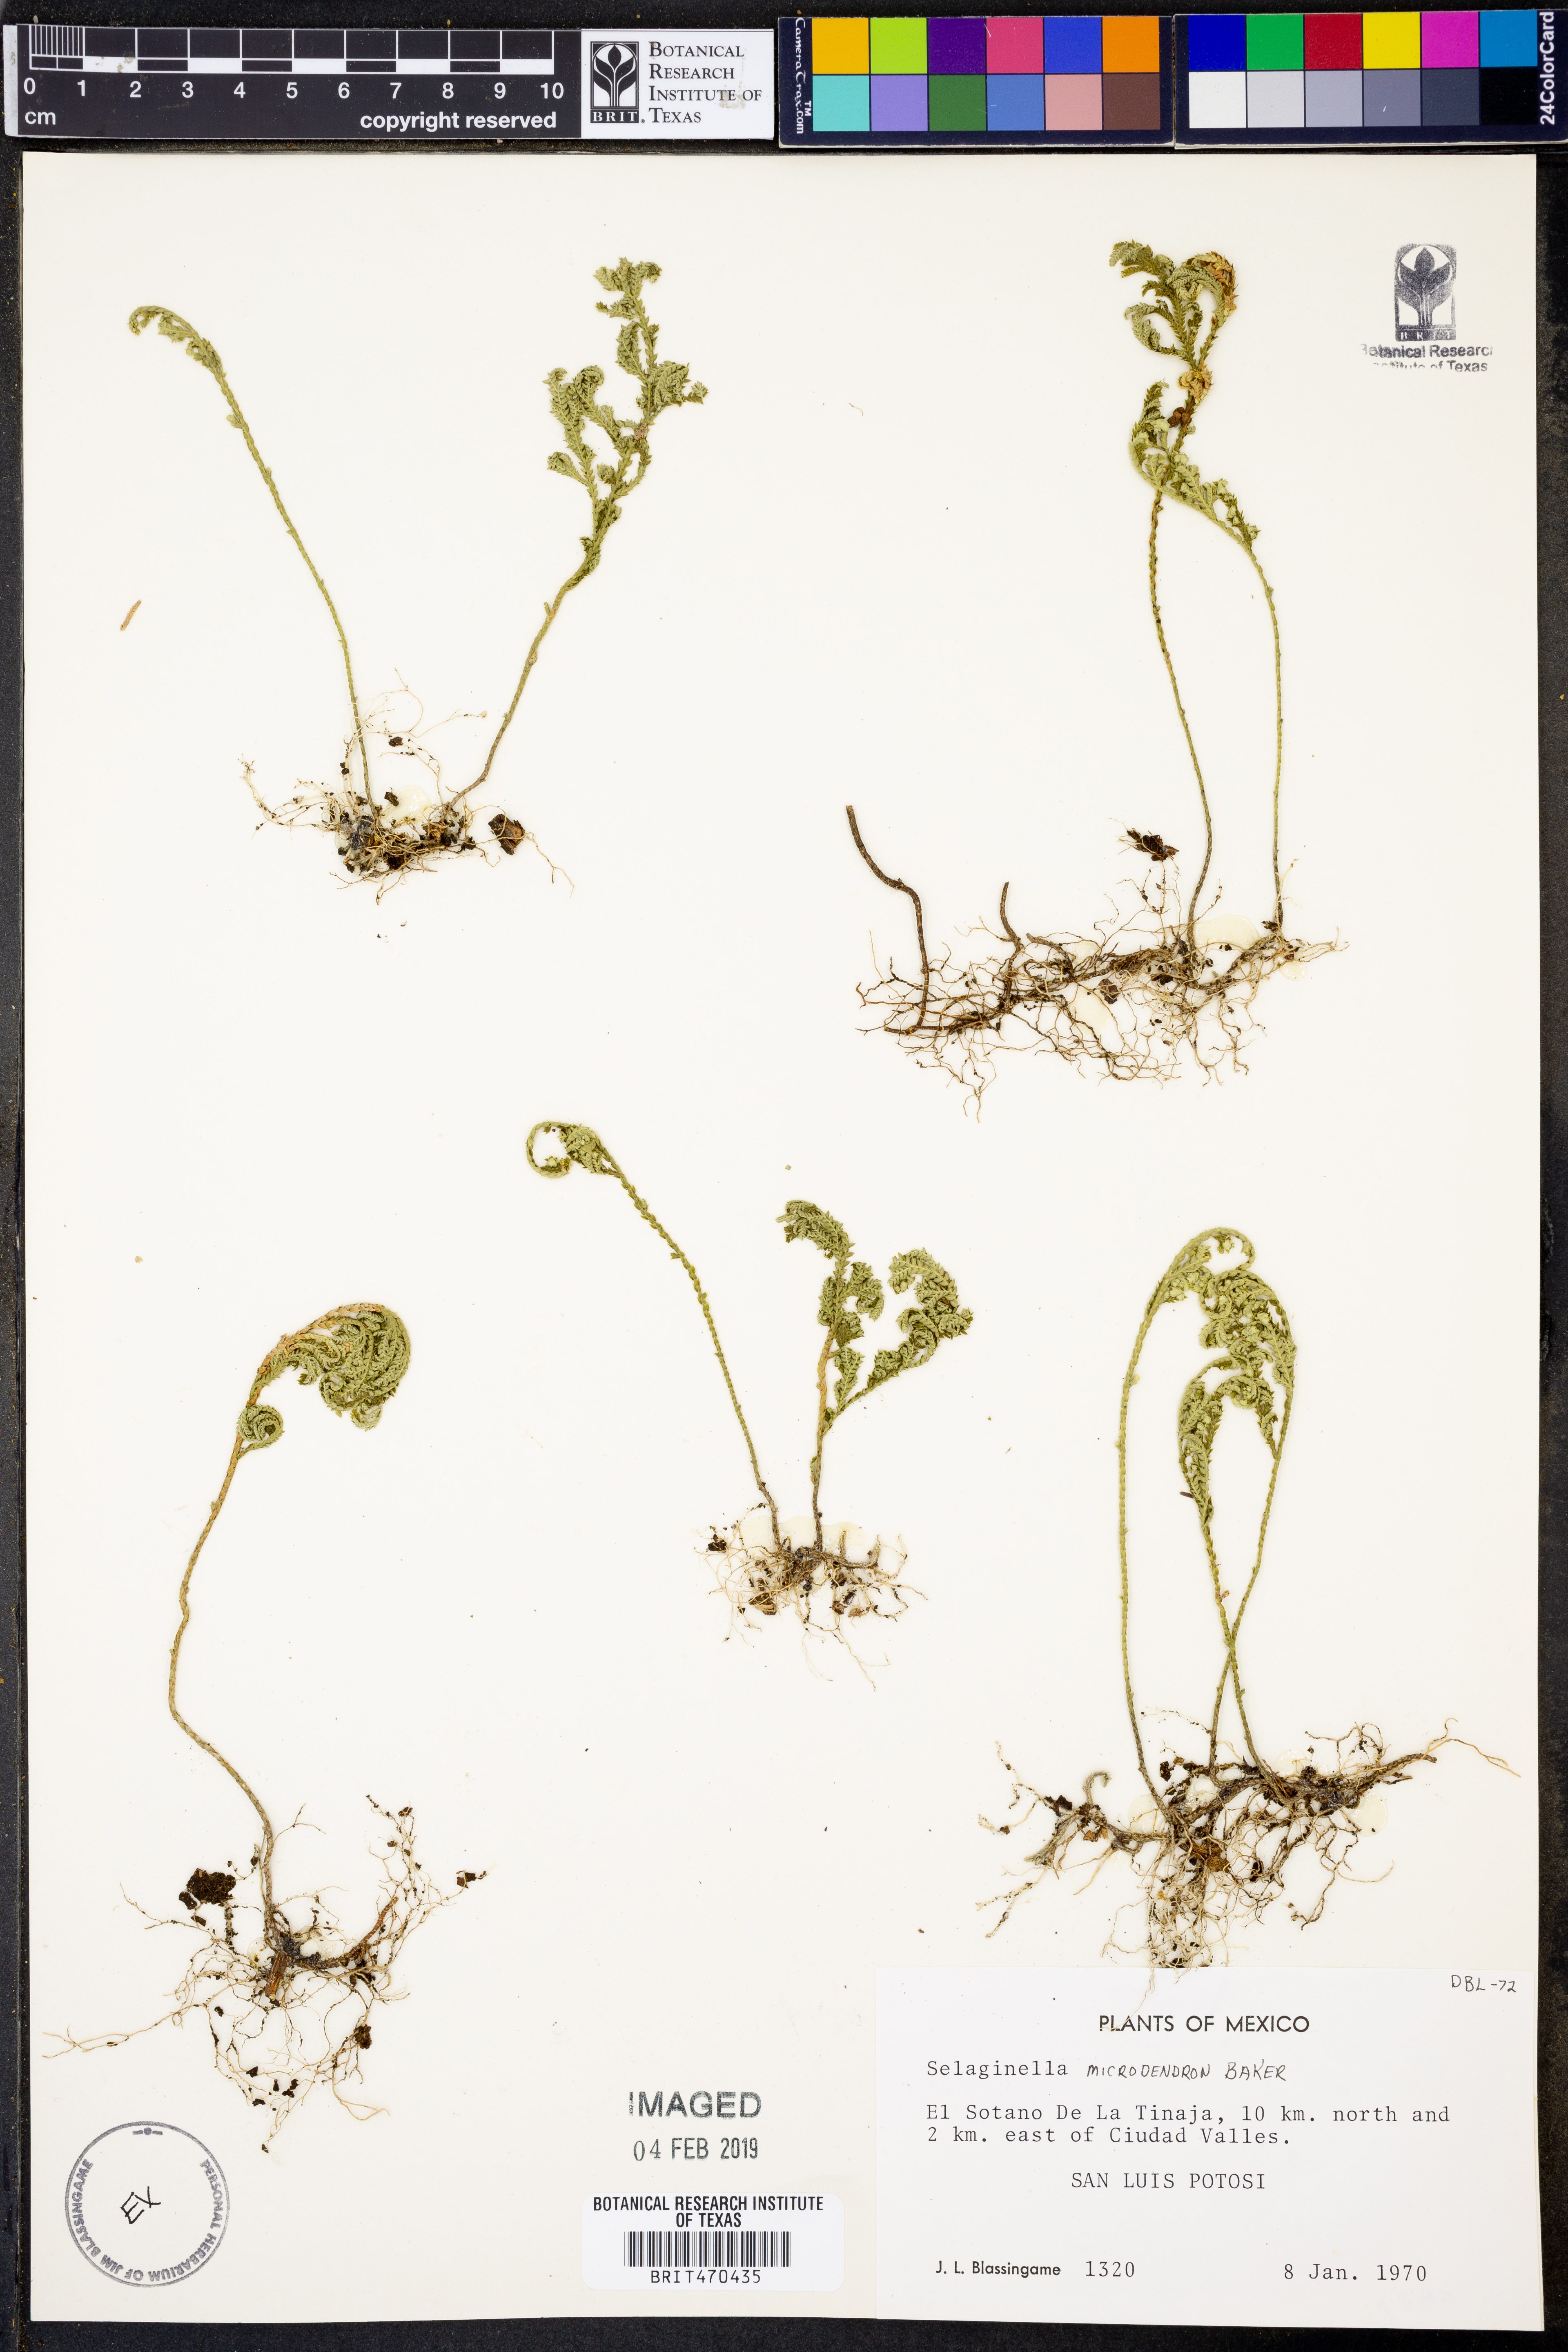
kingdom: Plantae
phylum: Tracheophyta
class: Lycopodiopsida
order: Selaginellales
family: Selaginellaceae
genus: Selaginella
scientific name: Selaginella microdendron
